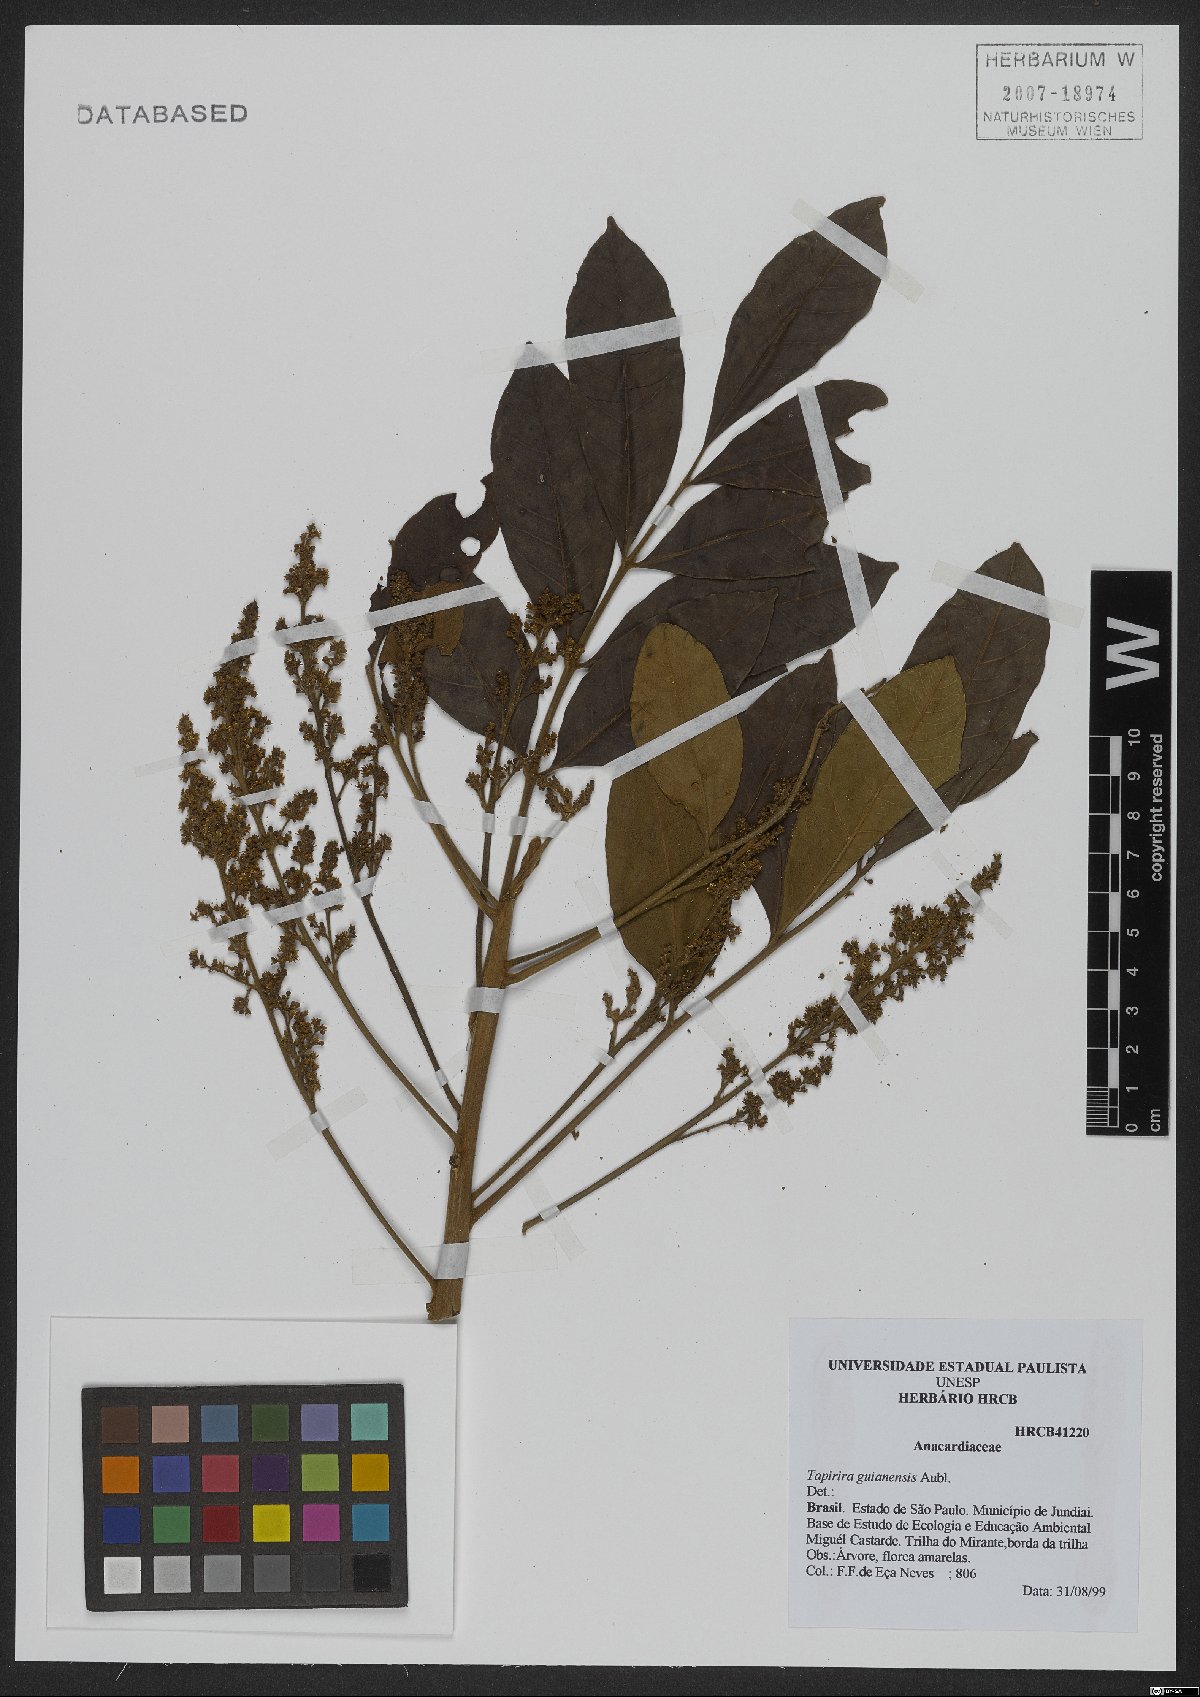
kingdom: Plantae
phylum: Tracheophyta
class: Magnoliopsida
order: Sapindales
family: Anacardiaceae
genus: Tapirira
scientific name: Tapirira guianensis
